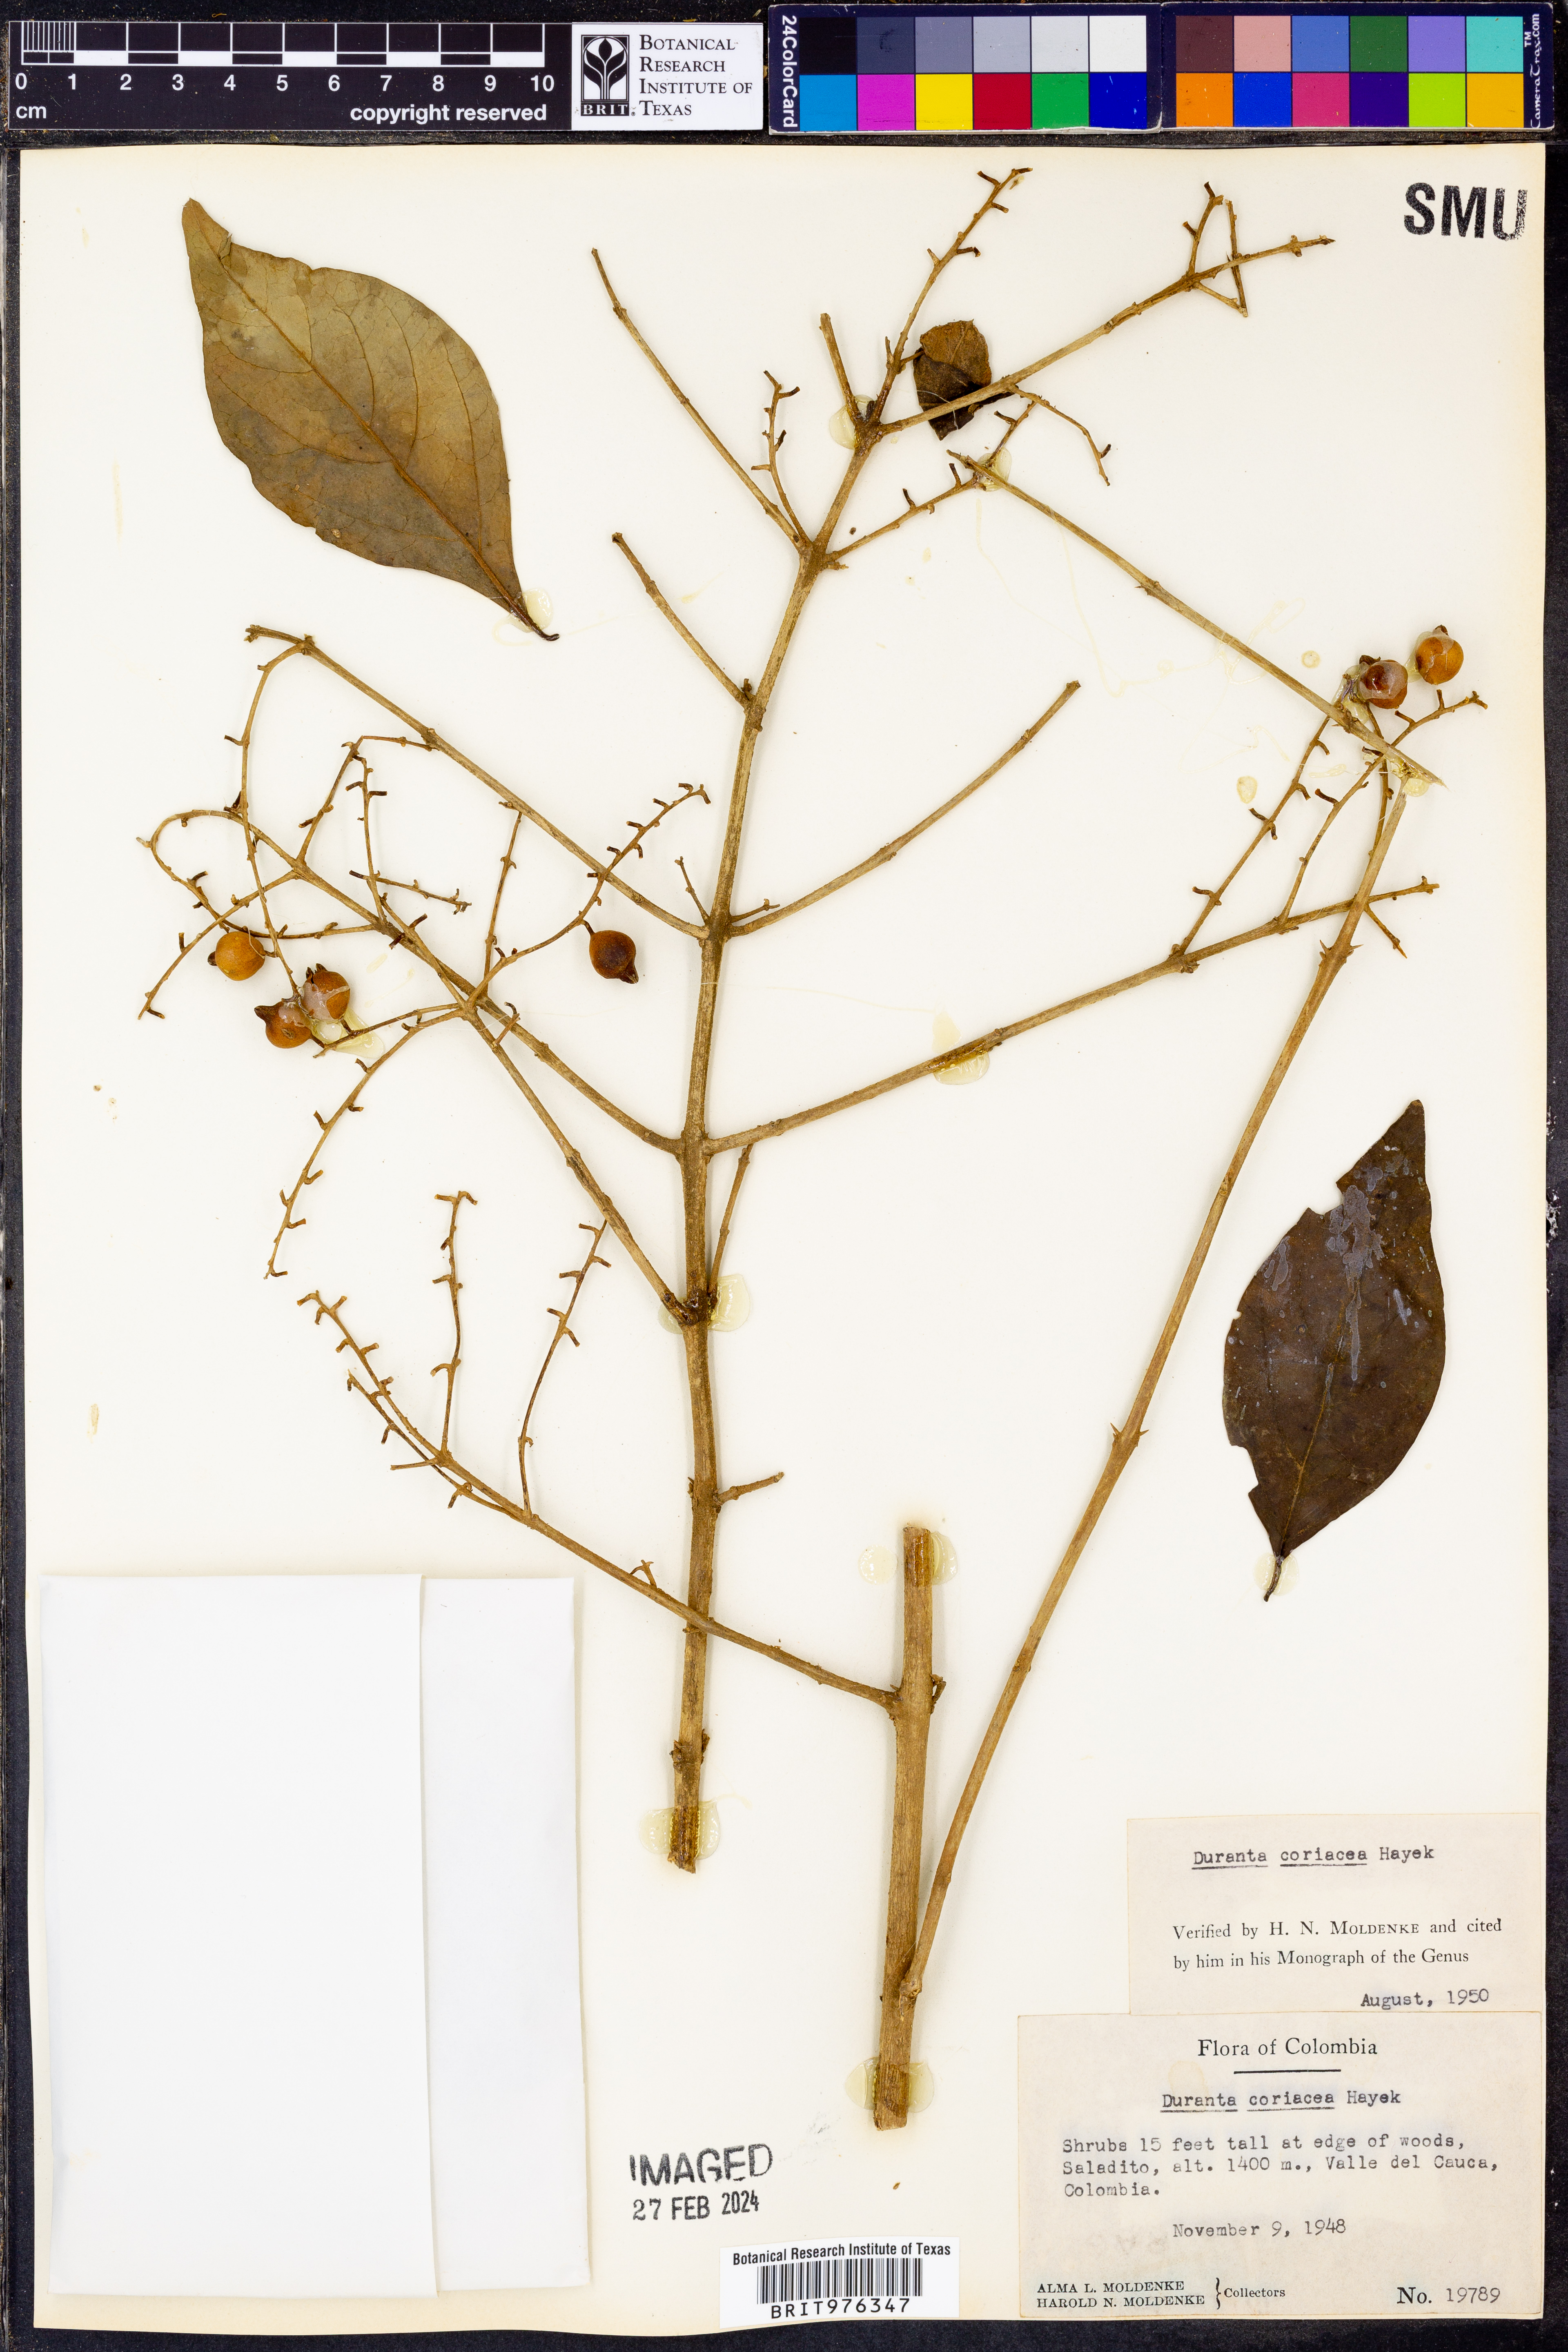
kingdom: Plantae
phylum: Tracheophyta
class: Magnoliopsida
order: Lamiales
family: Verbenaceae
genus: Duranta
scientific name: Duranta
